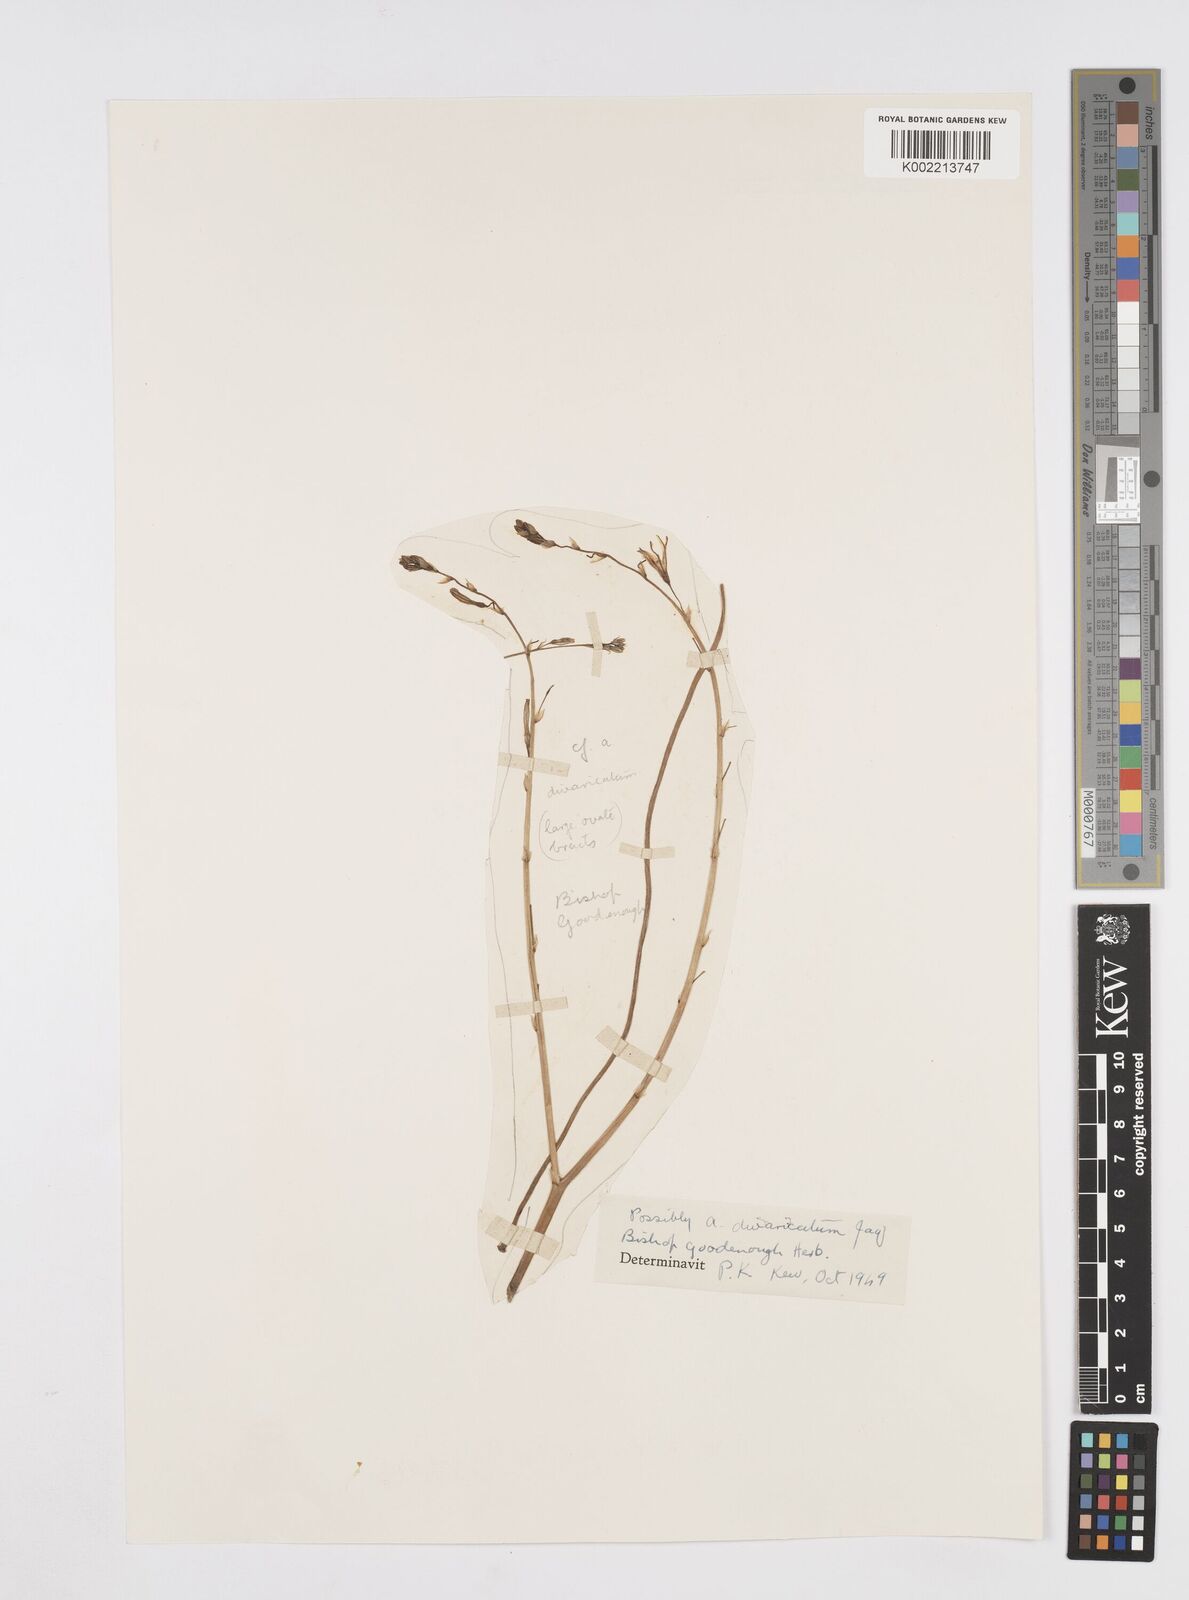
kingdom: Plantae
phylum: Tracheophyta
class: Liliopsida
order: Asparagales
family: Asphodelaceae
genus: Trachyandra
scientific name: Trachyandra divaricata
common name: Dune onionweed
